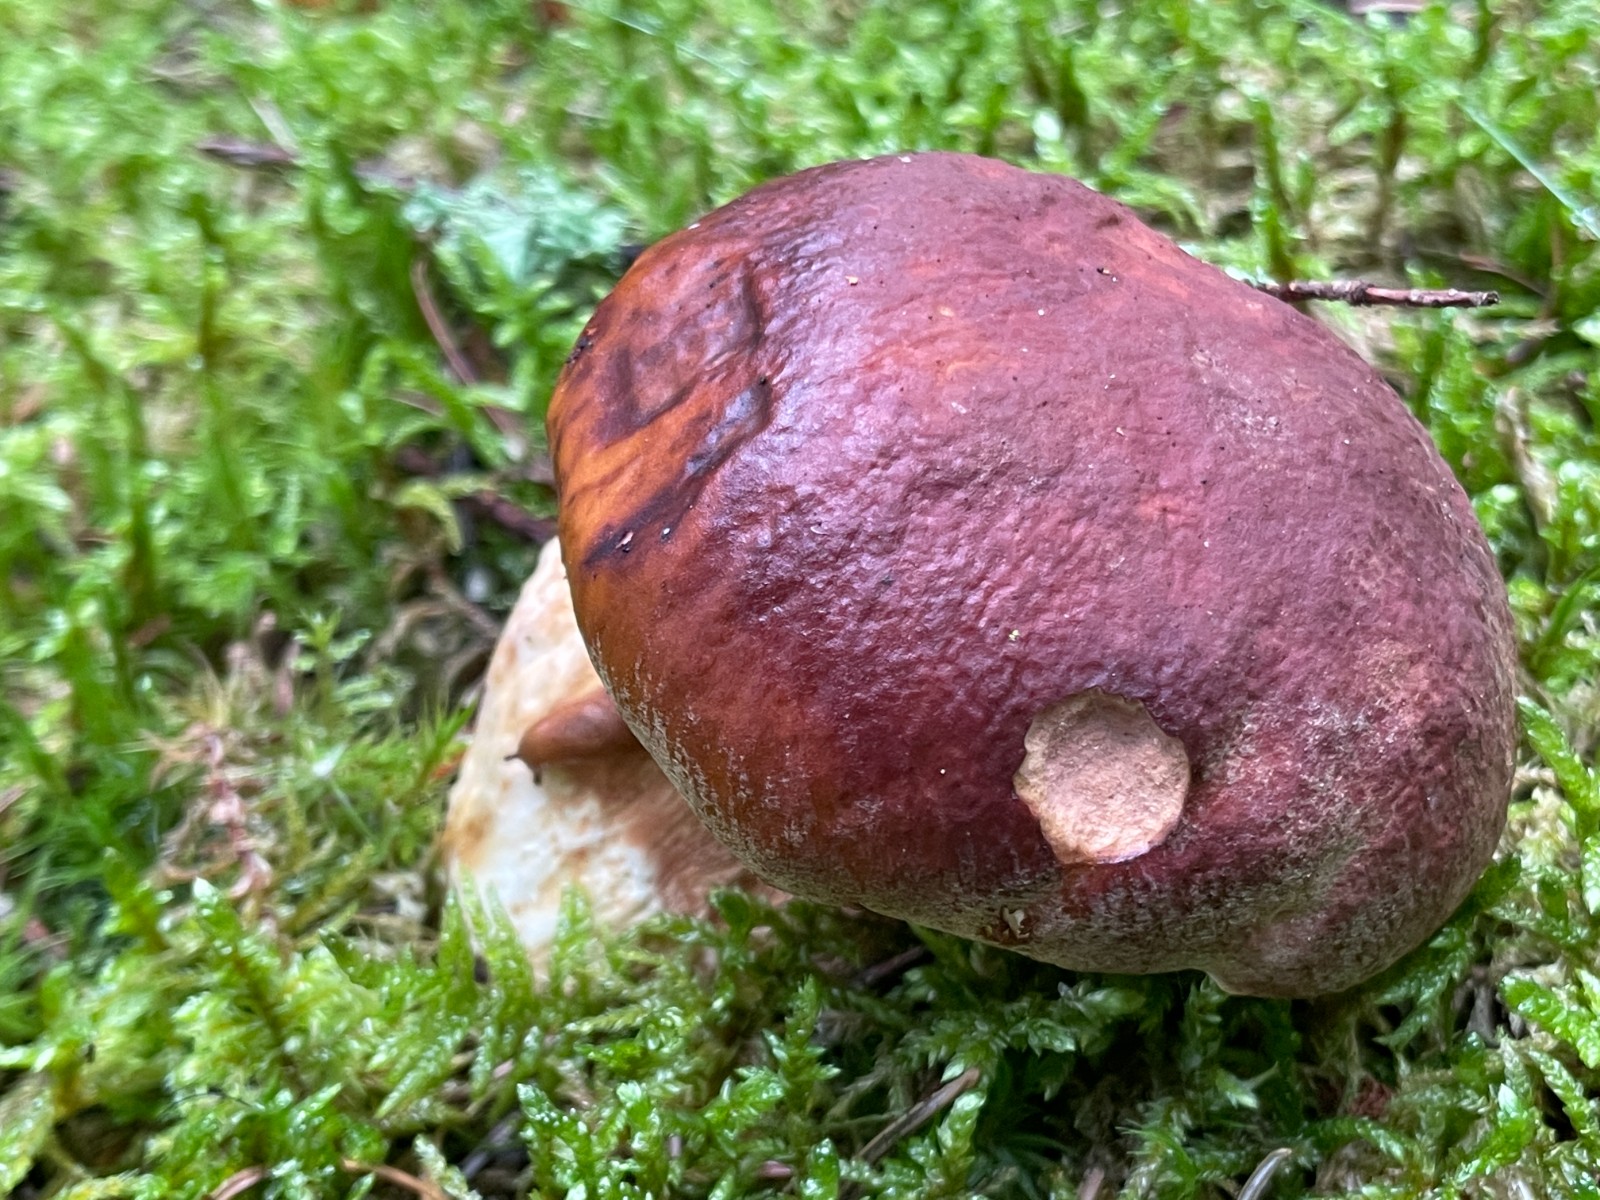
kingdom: Fungi
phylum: Basidiomycota
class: Agaricomycetes
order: Boletales
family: Boletaceae
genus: Boletus
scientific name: Boletus pinophilus
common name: rødbrun rørhat
